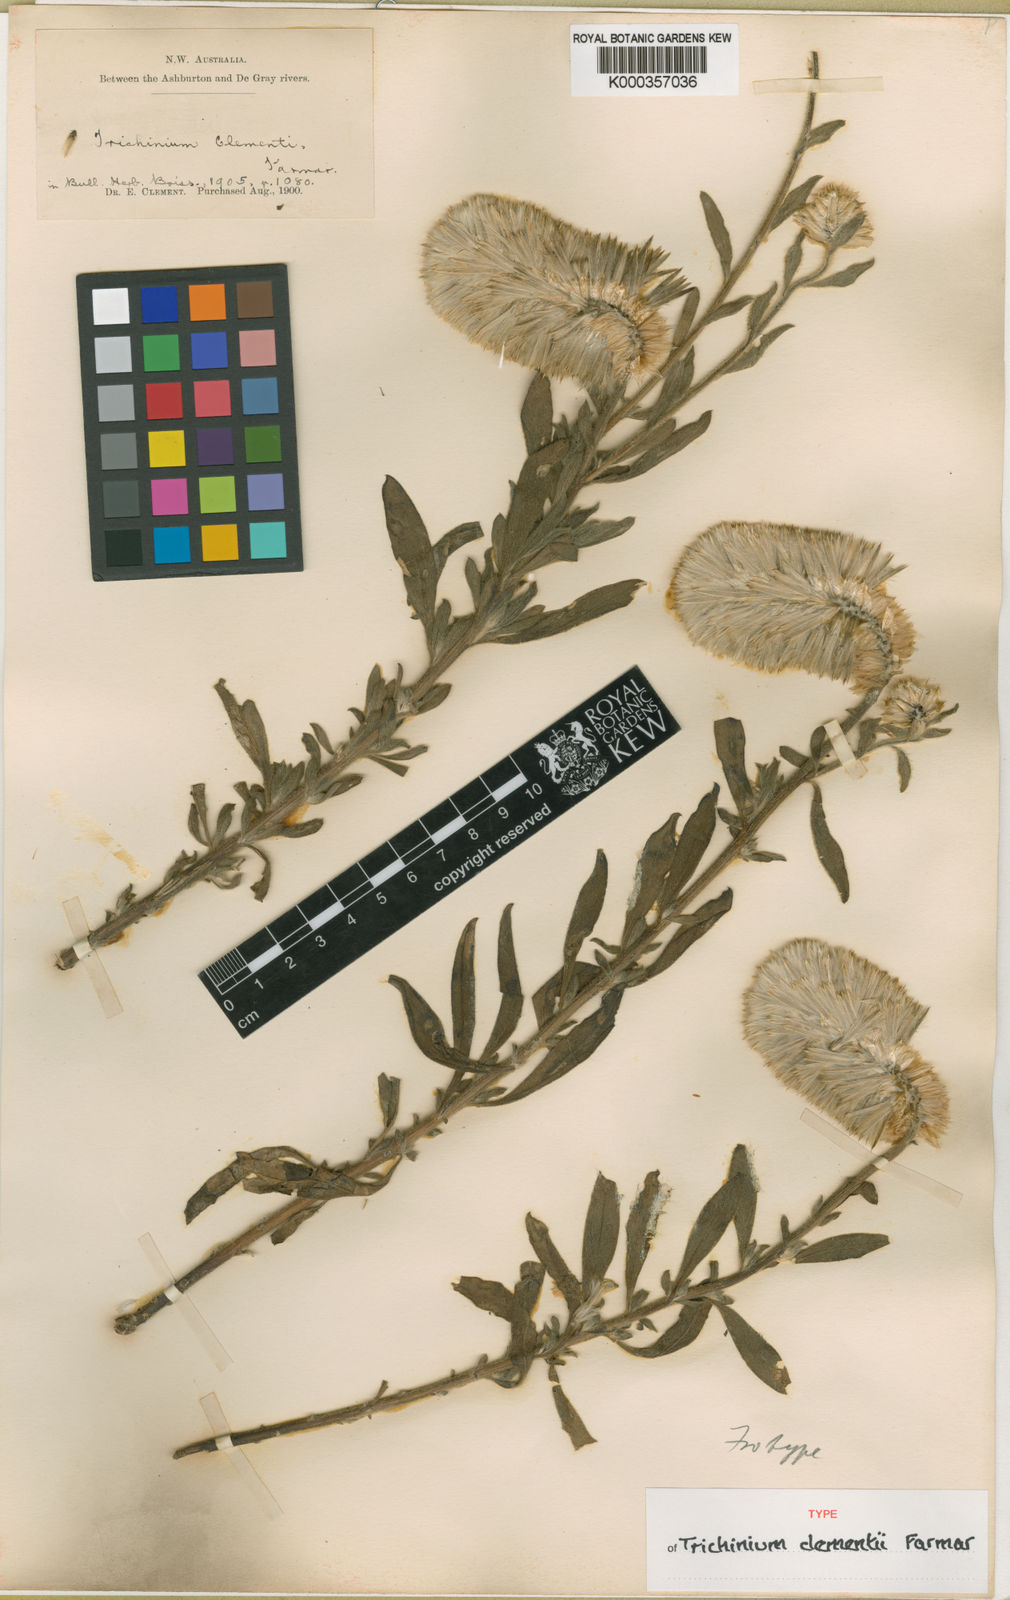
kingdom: Plantae
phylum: Tracheophyta
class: Magnoliopsida
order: Caryophyllales
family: Amaranthaceae
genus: Ptilotus
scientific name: Ptilotus clementii
